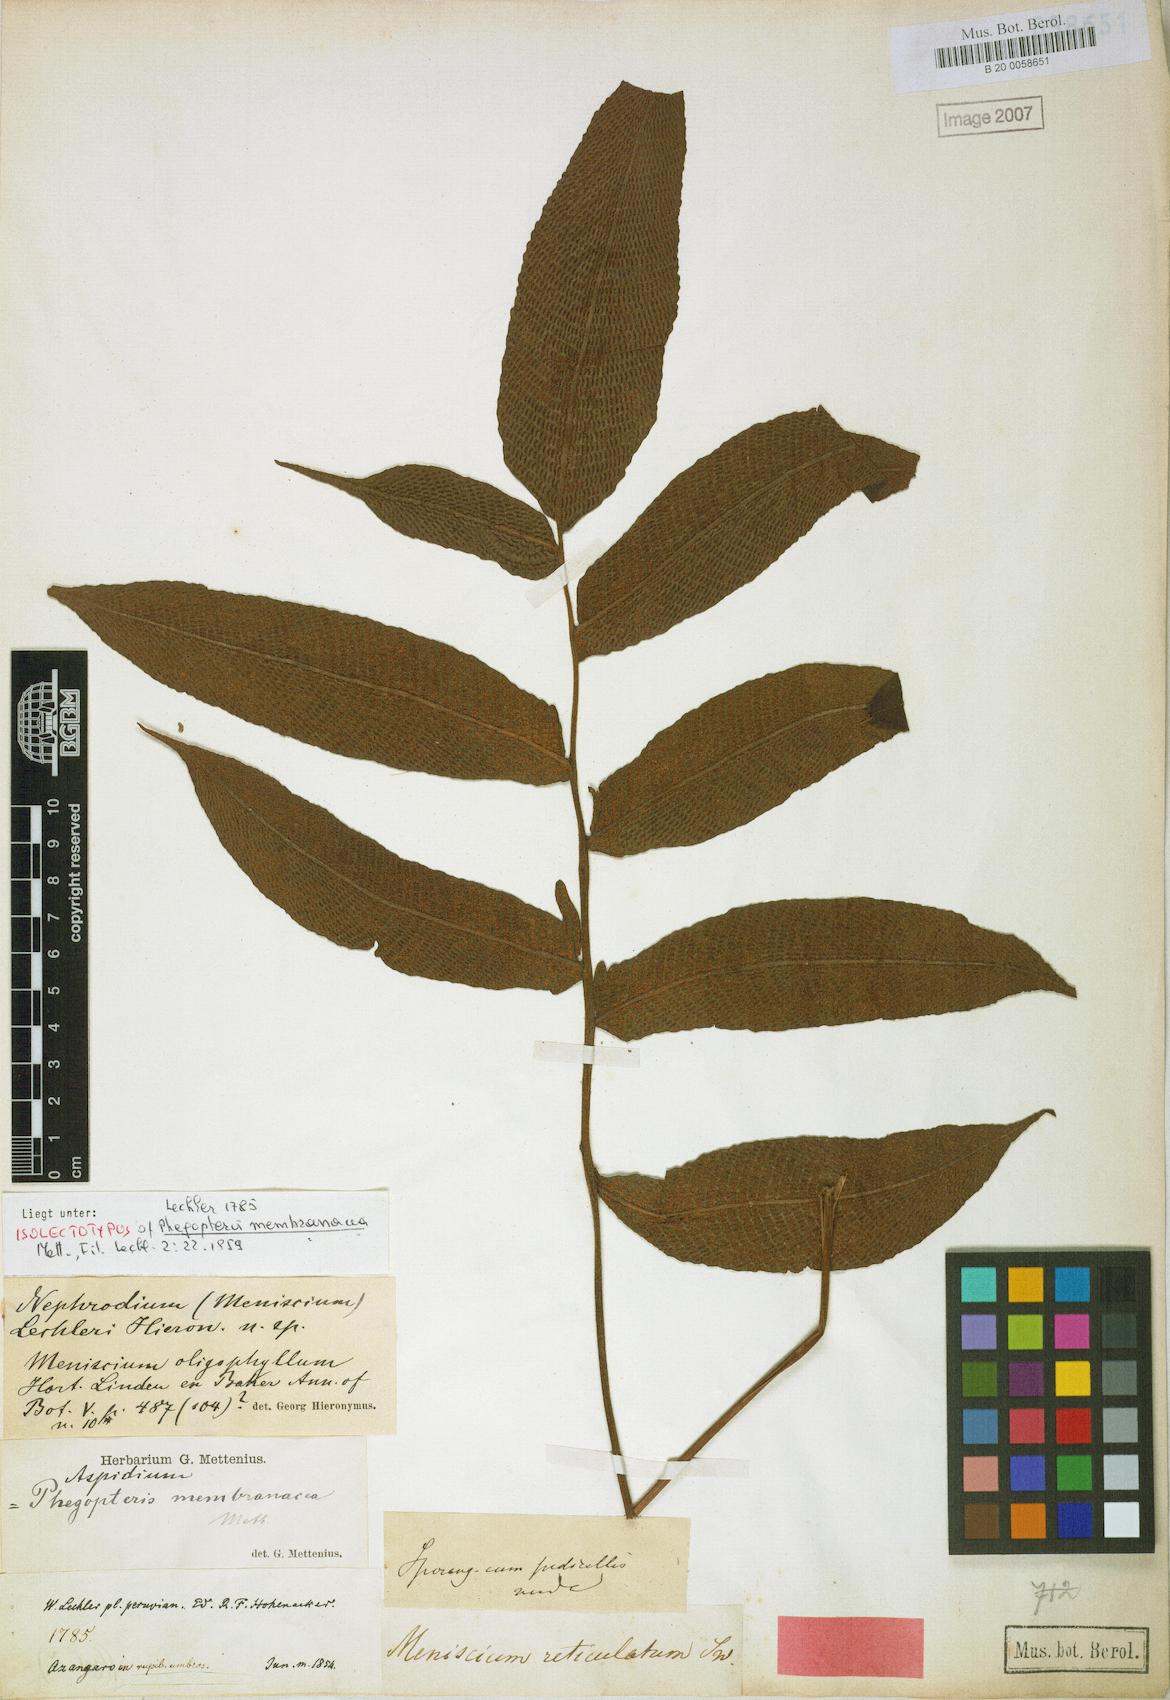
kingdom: Plantae
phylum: Tracheophyta
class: Polypodiopsida
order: Polypodiales
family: Thelypteridaceae
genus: Meniscium
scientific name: Meniscium membranaceum
